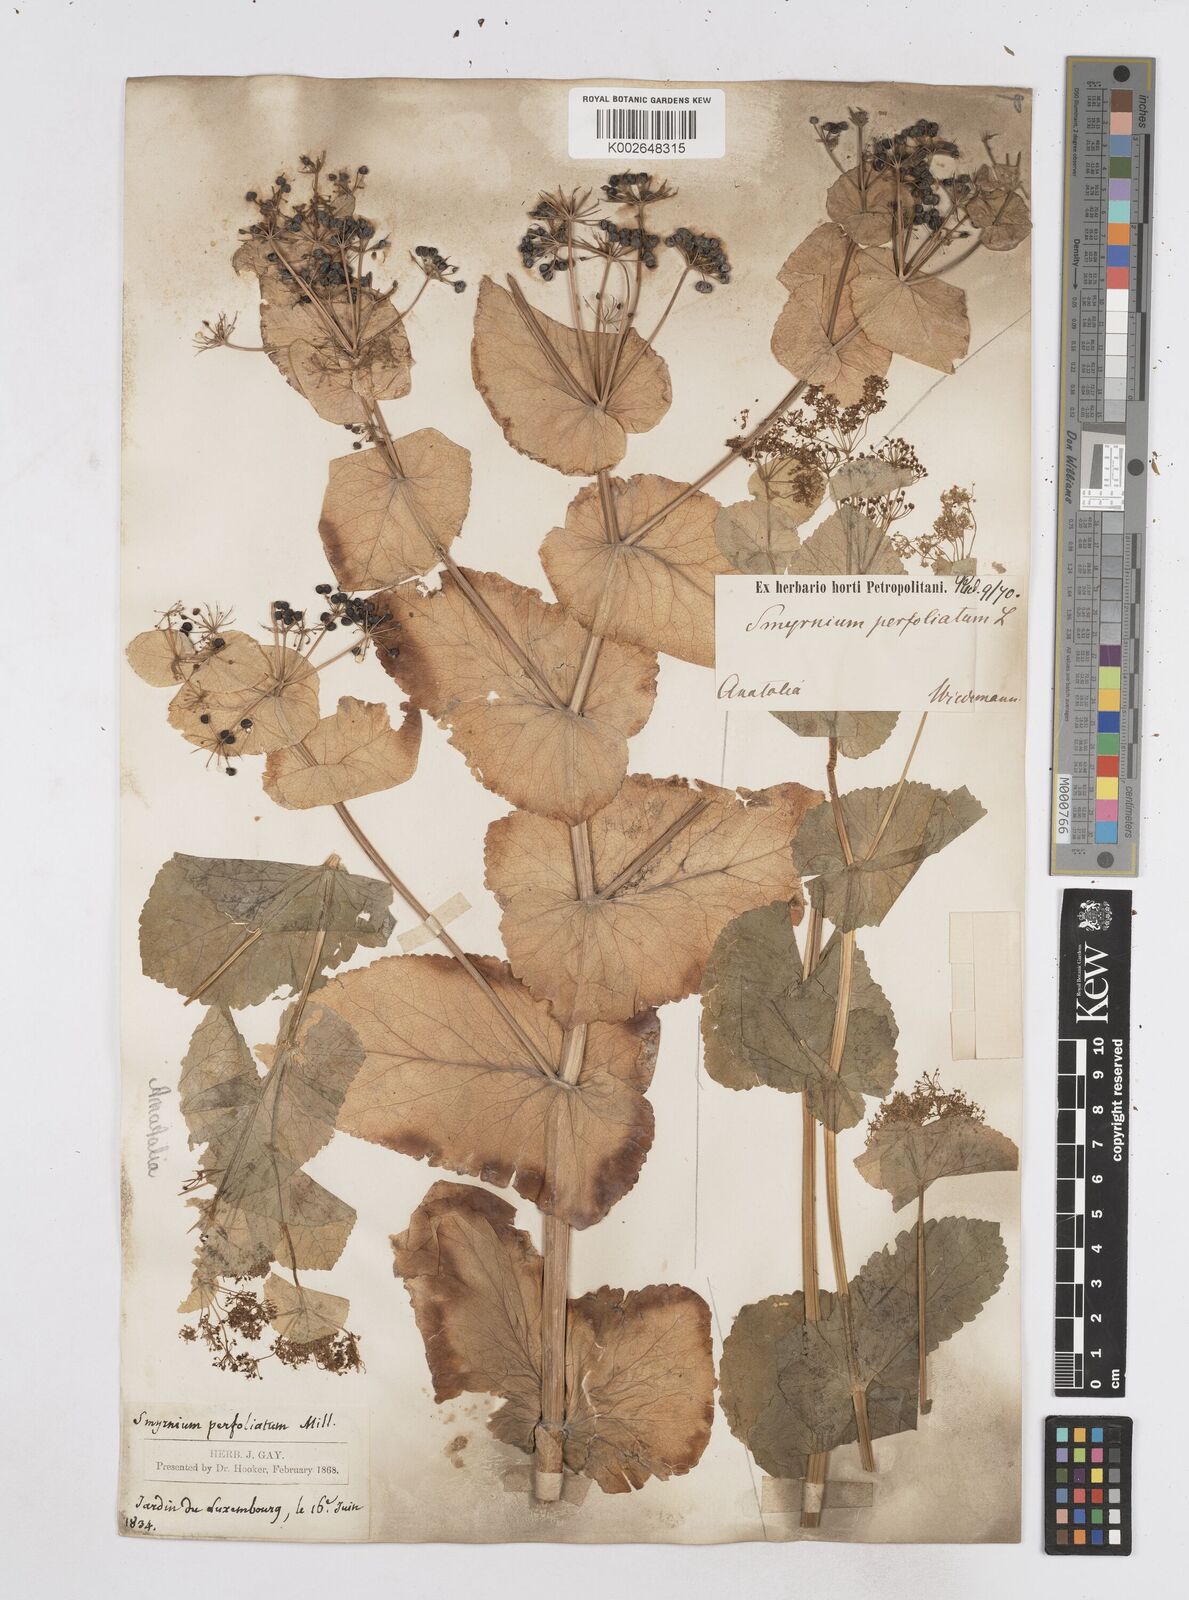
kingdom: Plantae
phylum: Tracheophyta
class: Magnoliopsida
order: Apiales
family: Apiaceae
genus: Smyrnium
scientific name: Smyrnium perfoliatum
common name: Perfoliate alexanders
